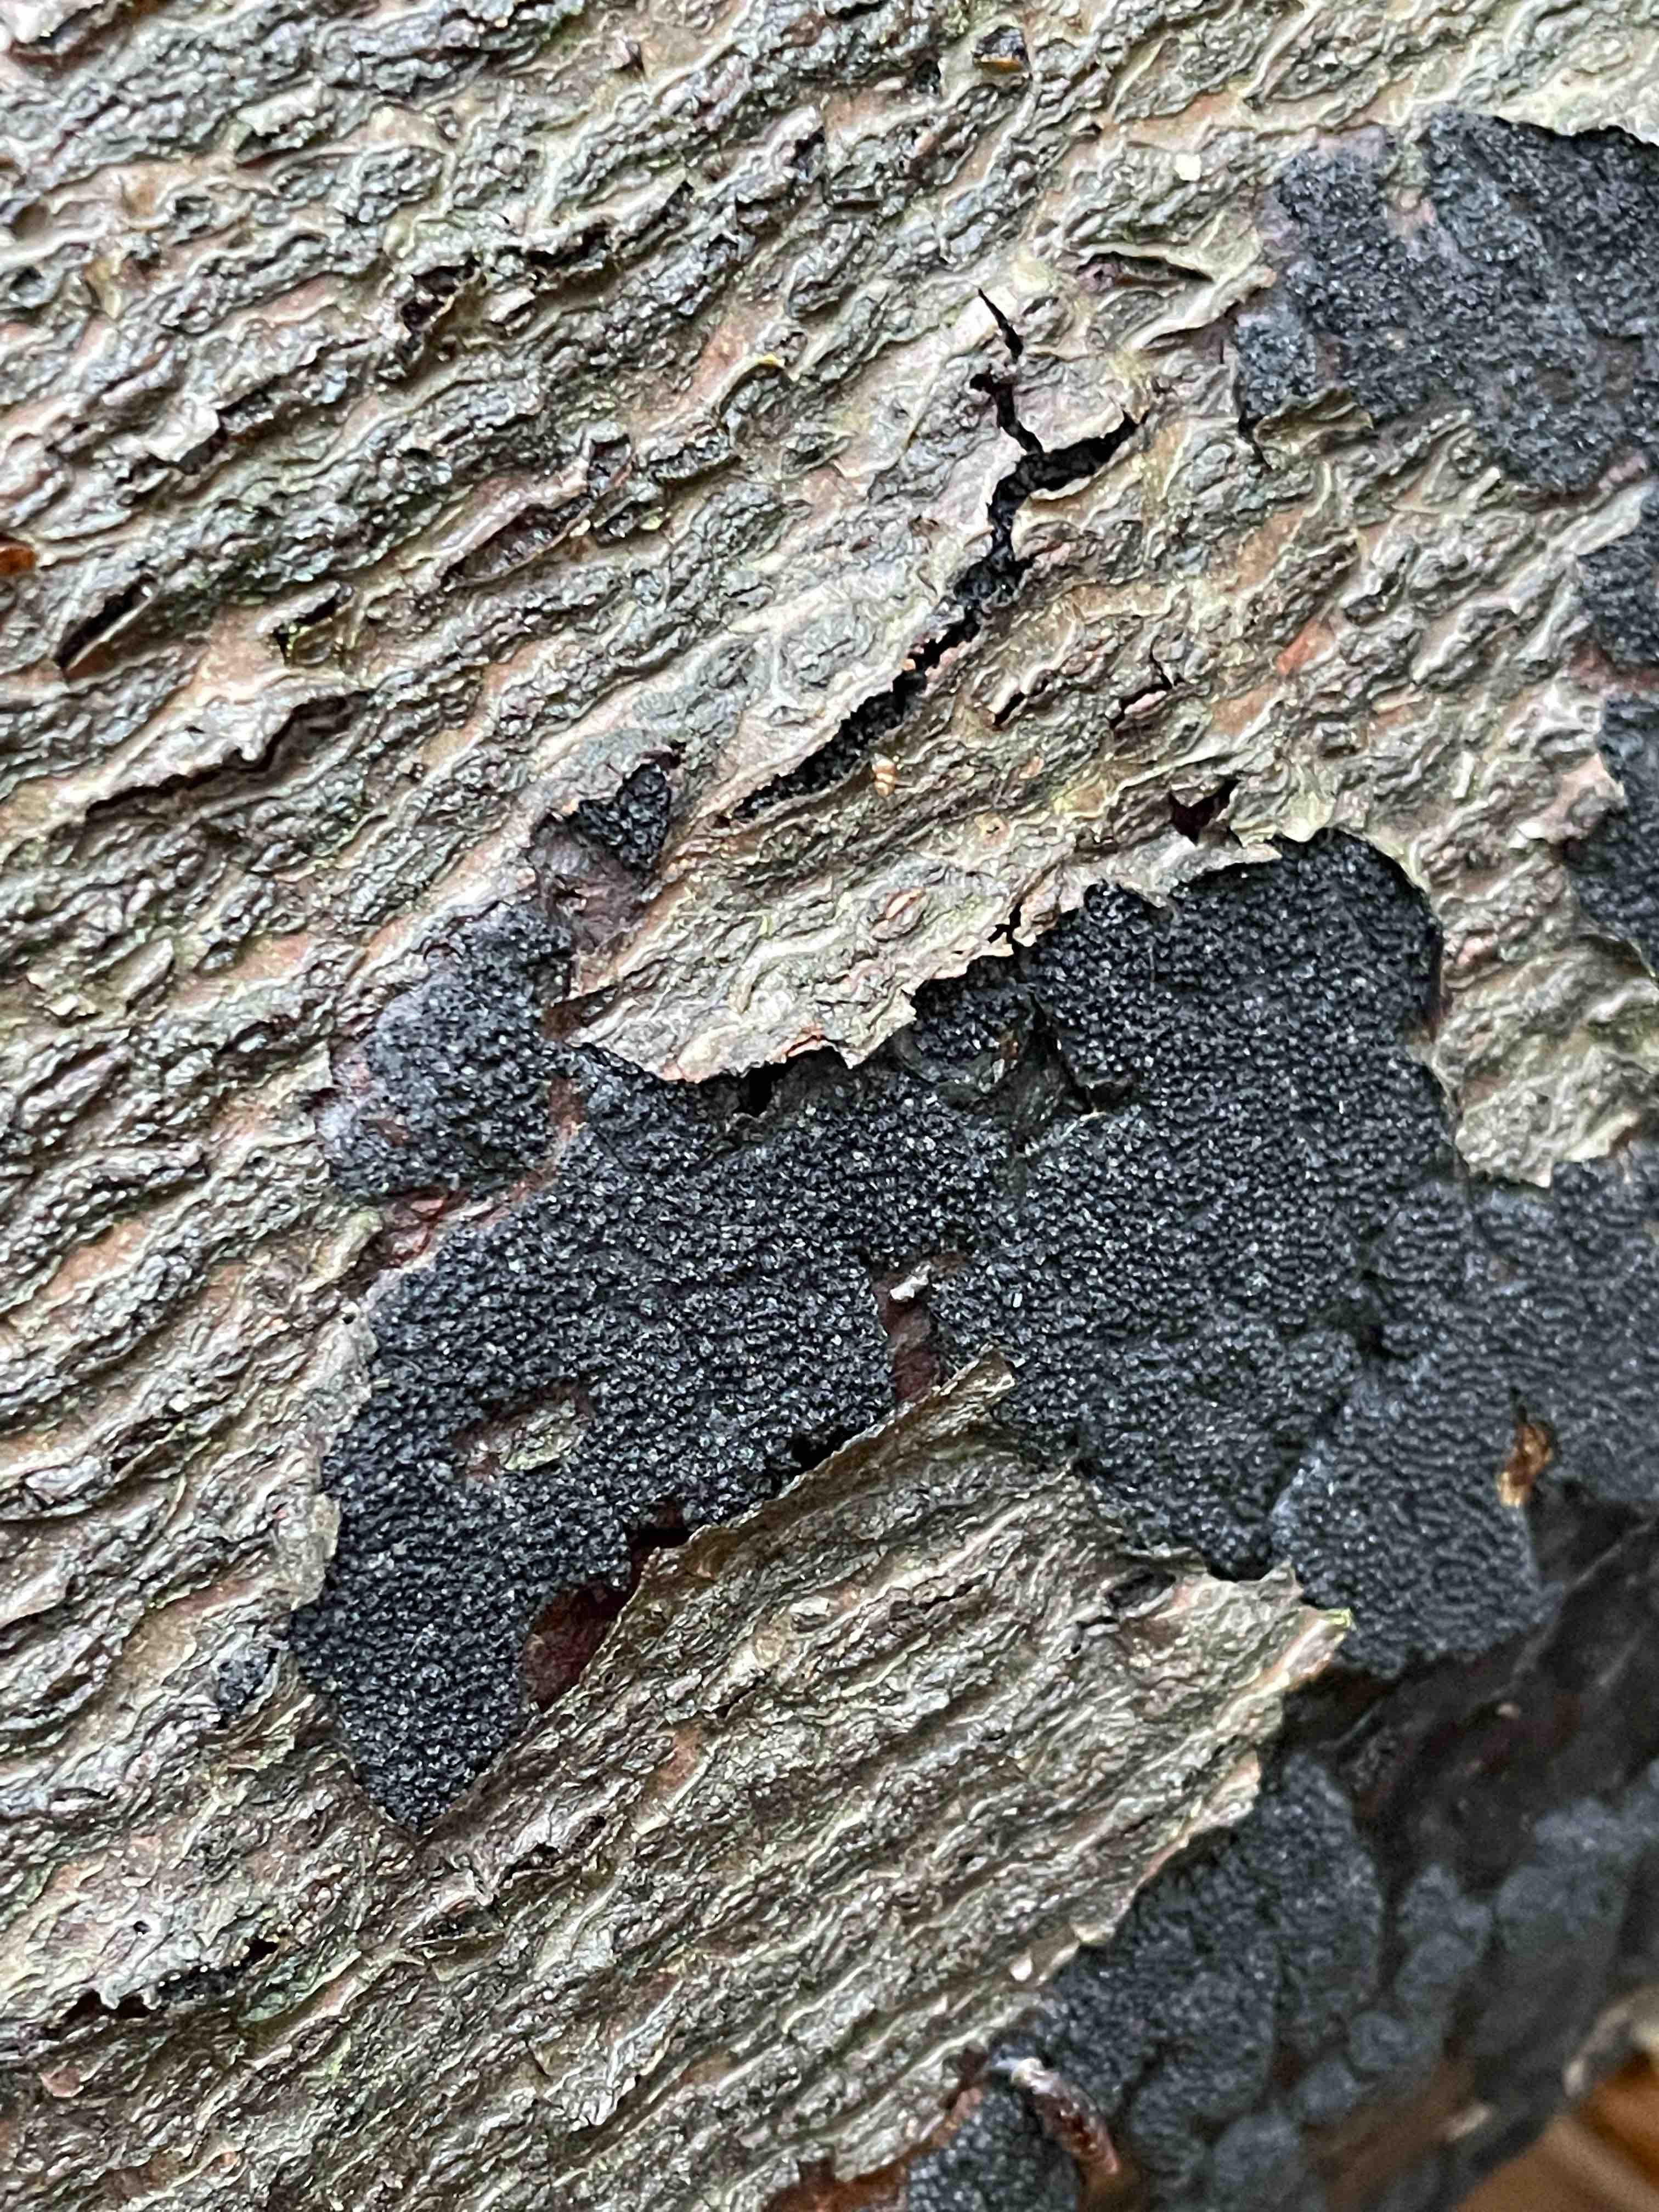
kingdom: Fungi
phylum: Ascomycota
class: Sordariomycetes
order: Xylariales
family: Diatrypaceae
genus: Eutypa
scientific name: Eutypa spinosa
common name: grov kulskorpe
